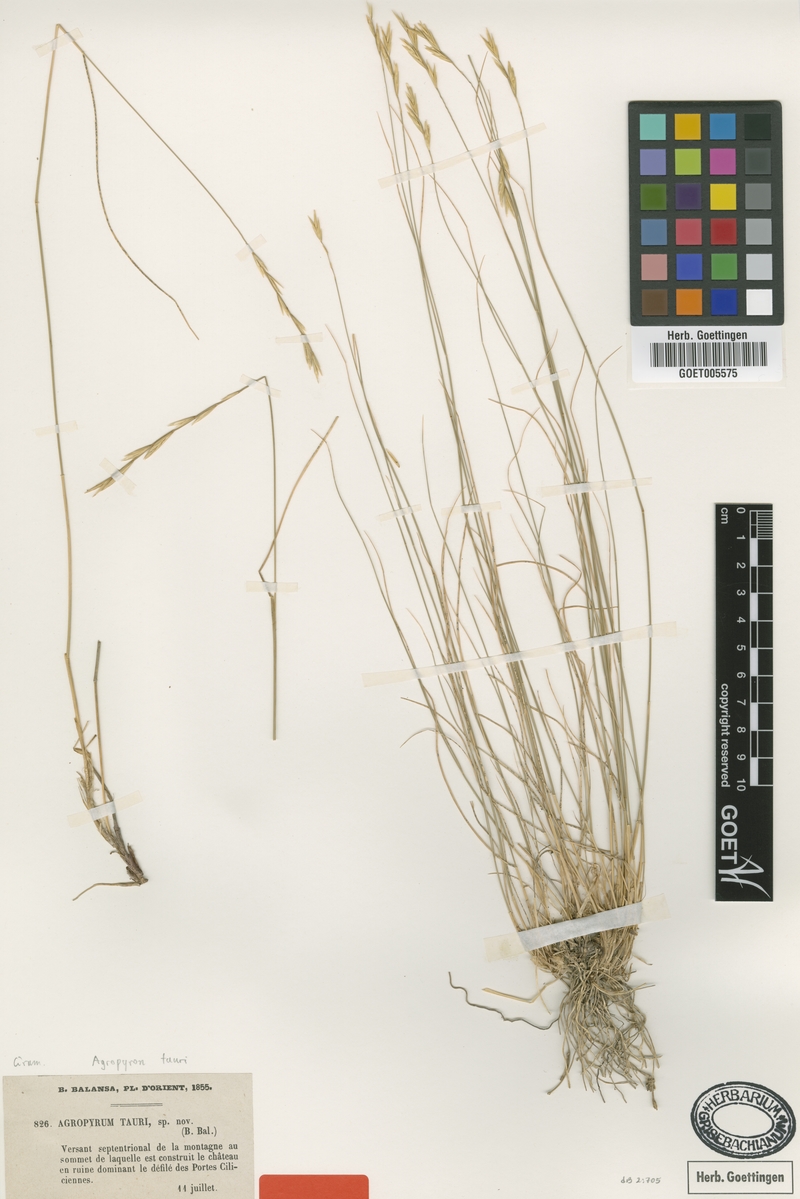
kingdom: Plantae
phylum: Tracheophyta
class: Liliopsida
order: Poales
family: Poaceae
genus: Pseudoroegneria
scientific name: Pseudoroegneria tauri
